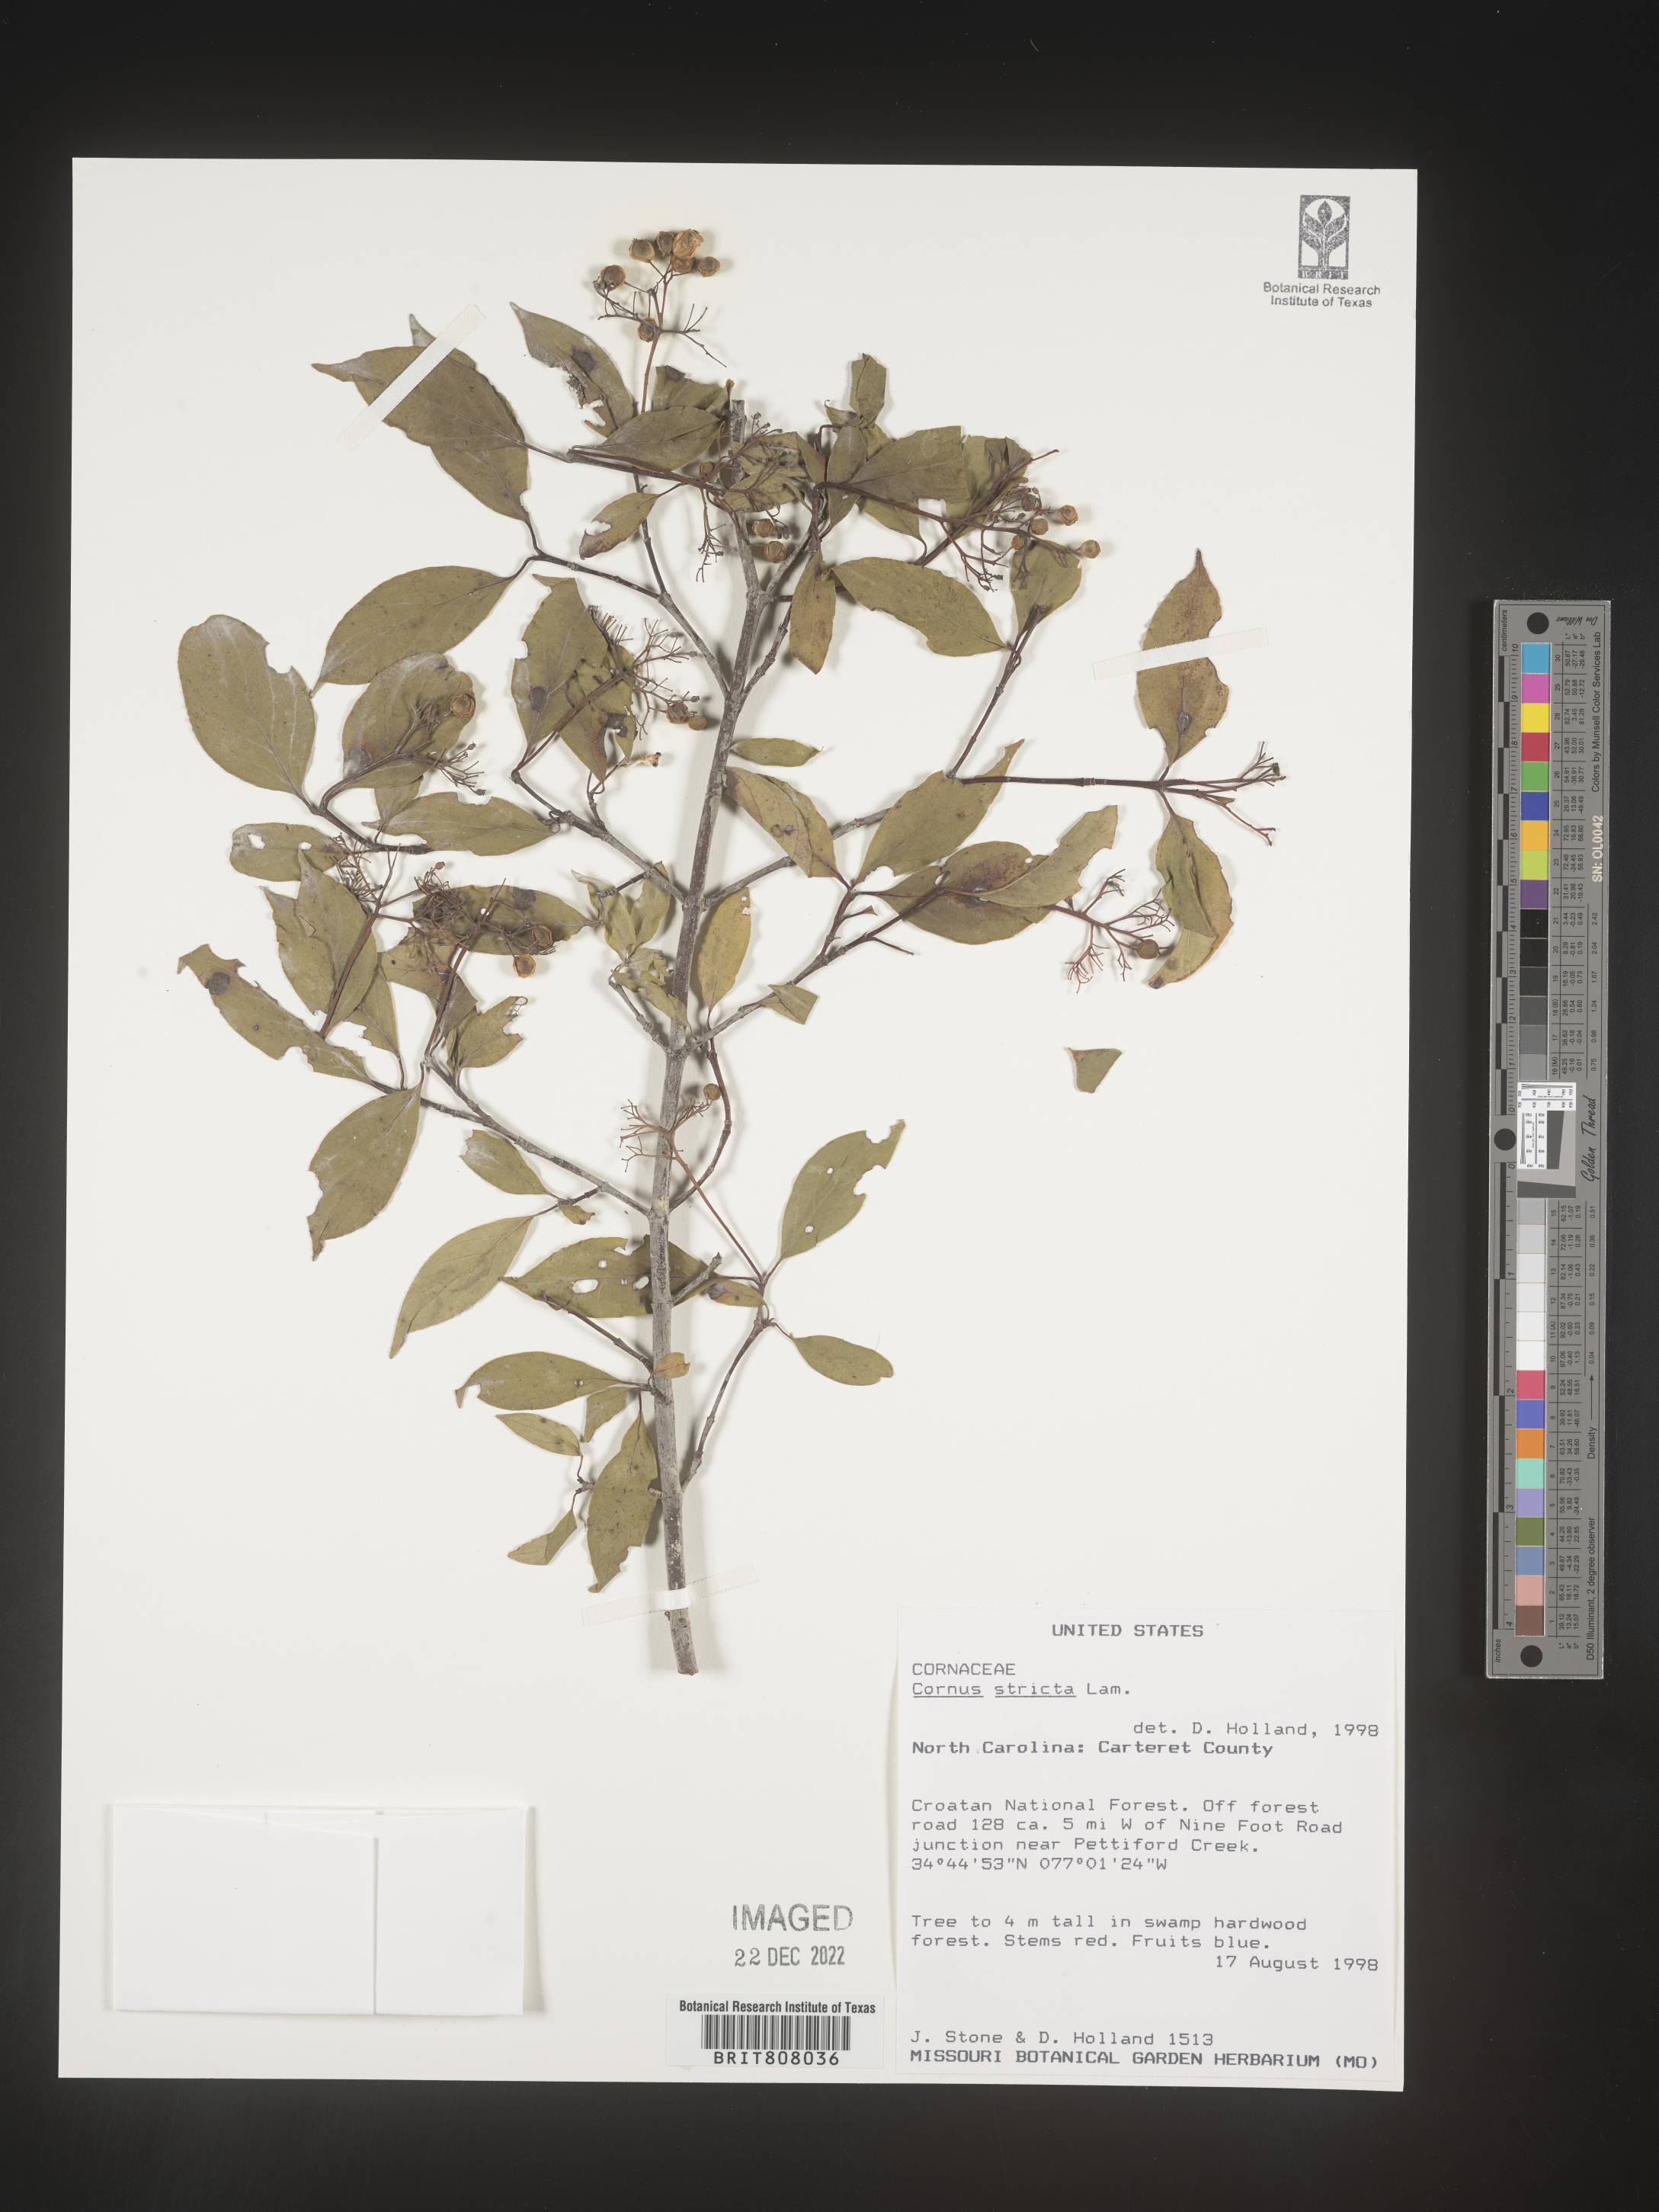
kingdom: Plantae
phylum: Tracheophyta
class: Magnoliopsida
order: Cornales
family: Cornaceae
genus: Cornus
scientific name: Cornus foemina
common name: Swamp dogwood
